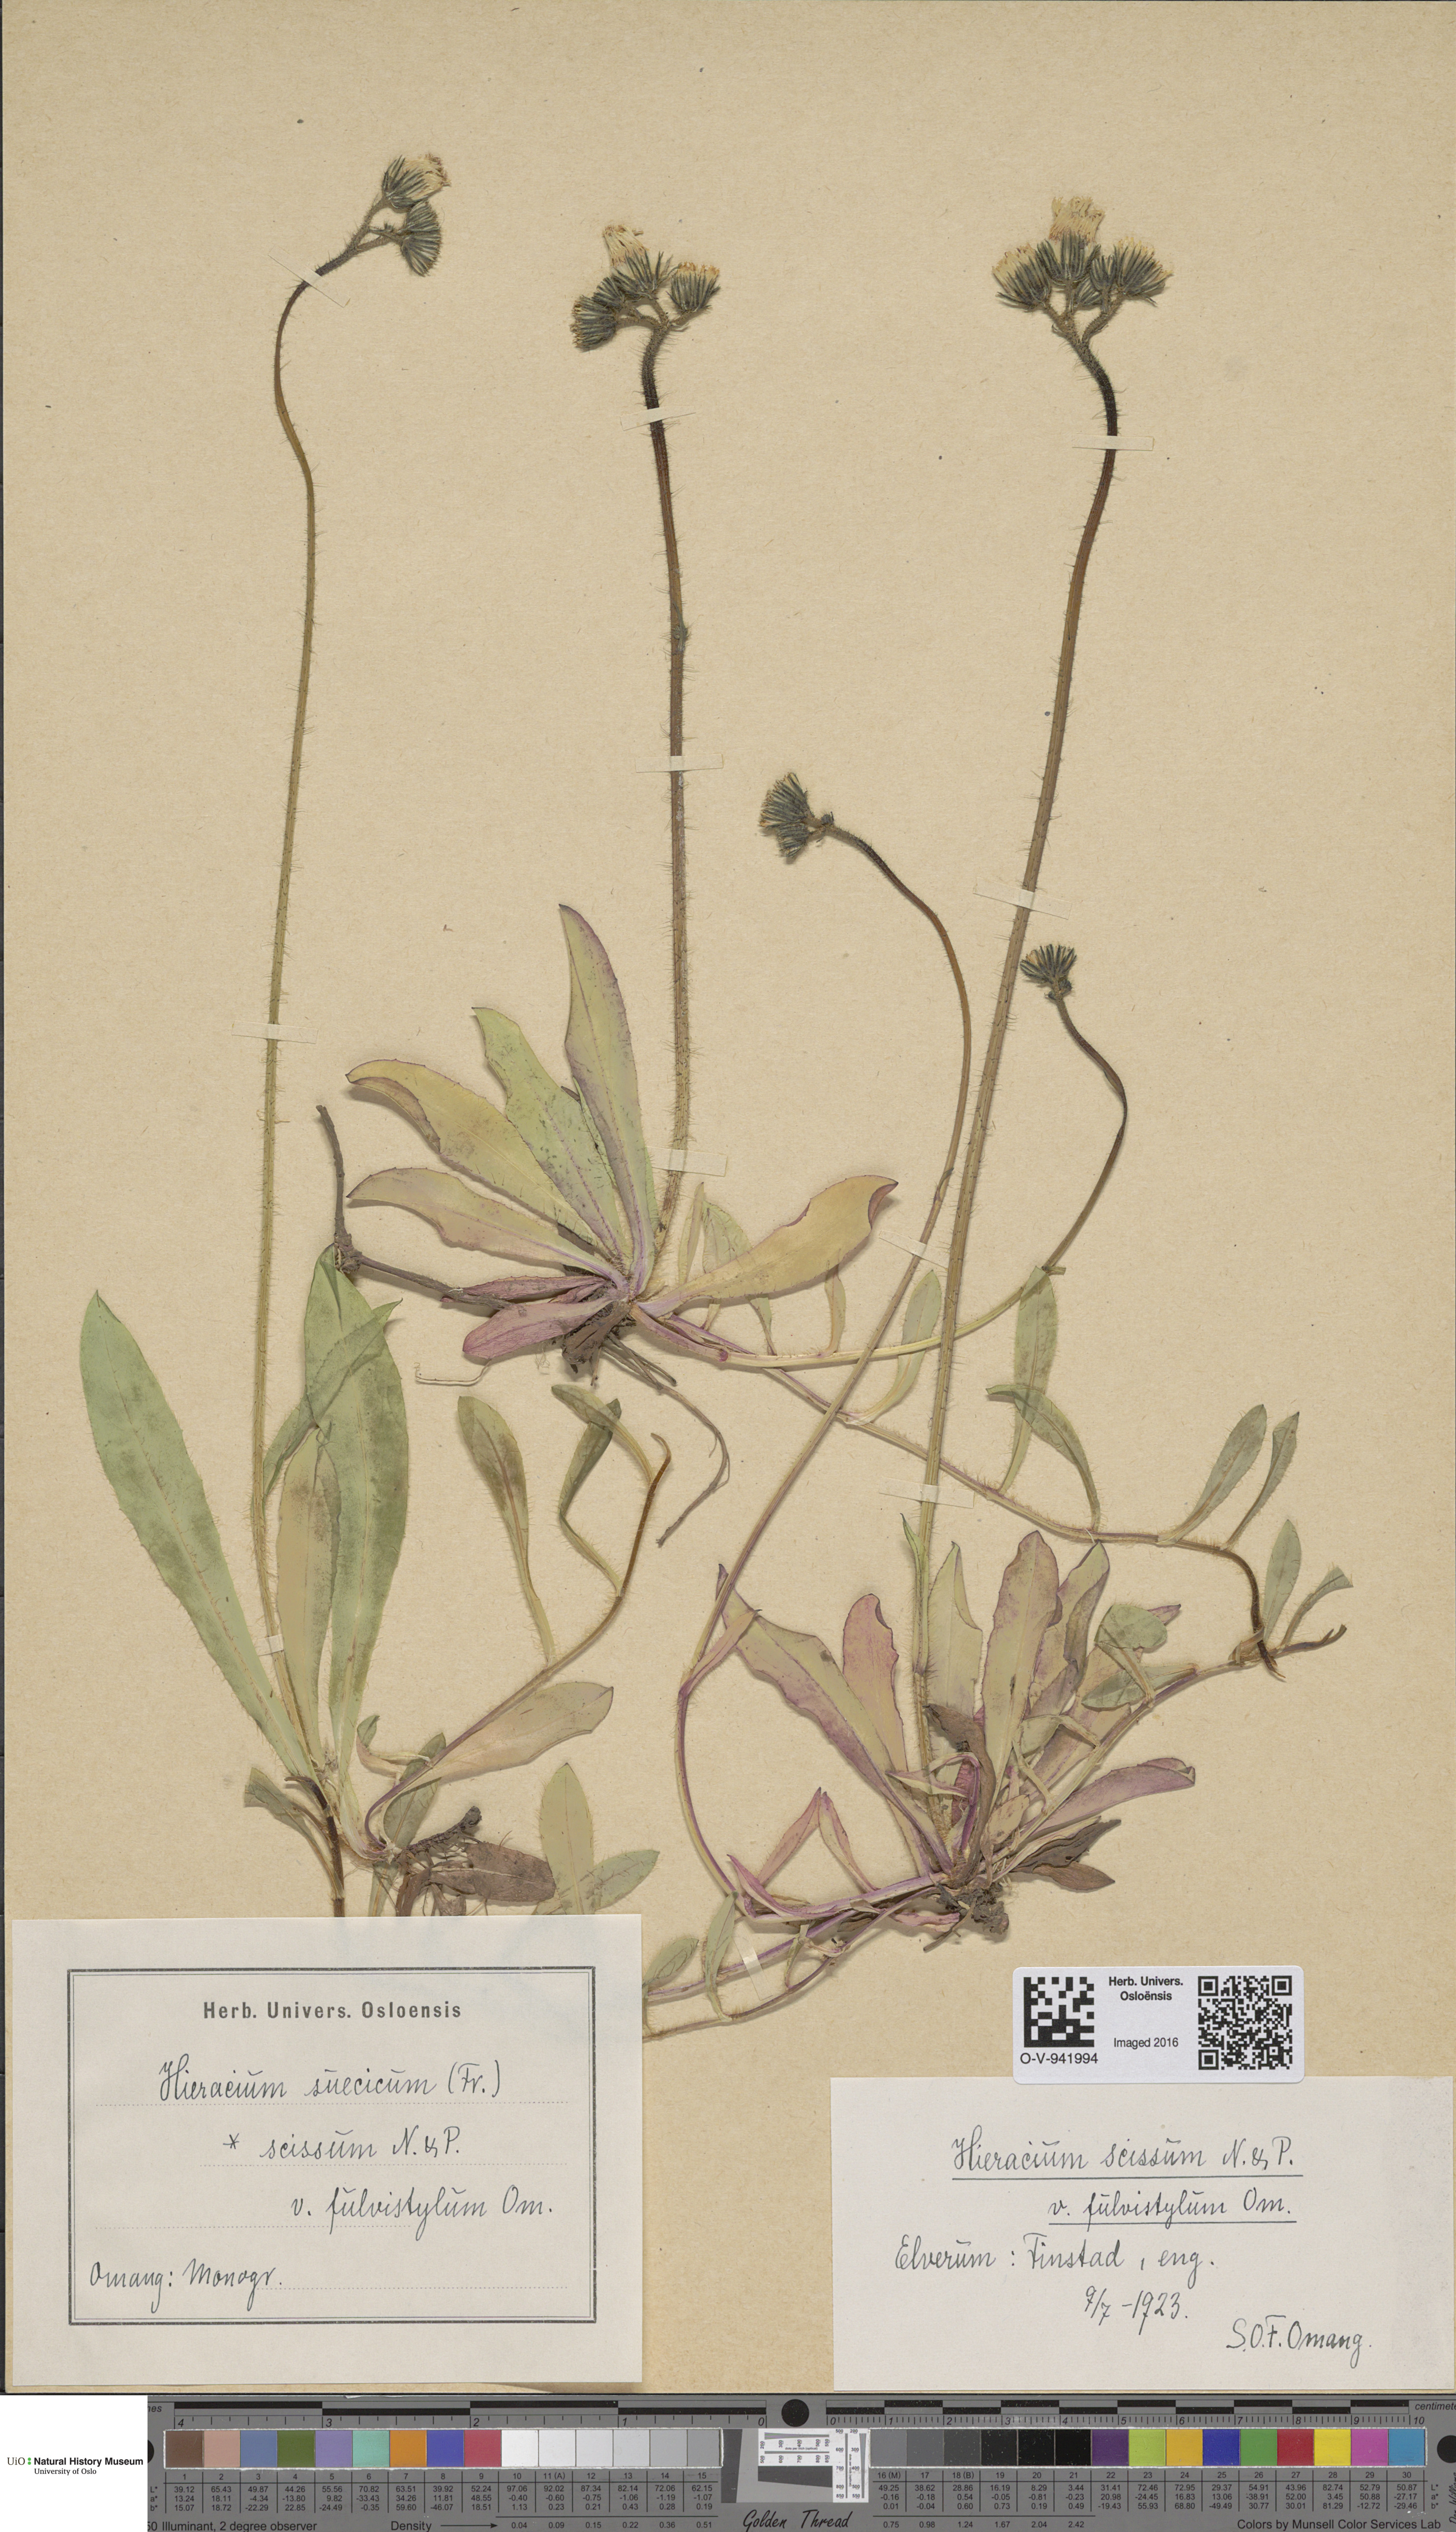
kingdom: Plantae
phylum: Tracheophyta
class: Magnoliopsida
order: Asterales
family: Asteraceae
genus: Pilosella
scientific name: Pilosella dubia
